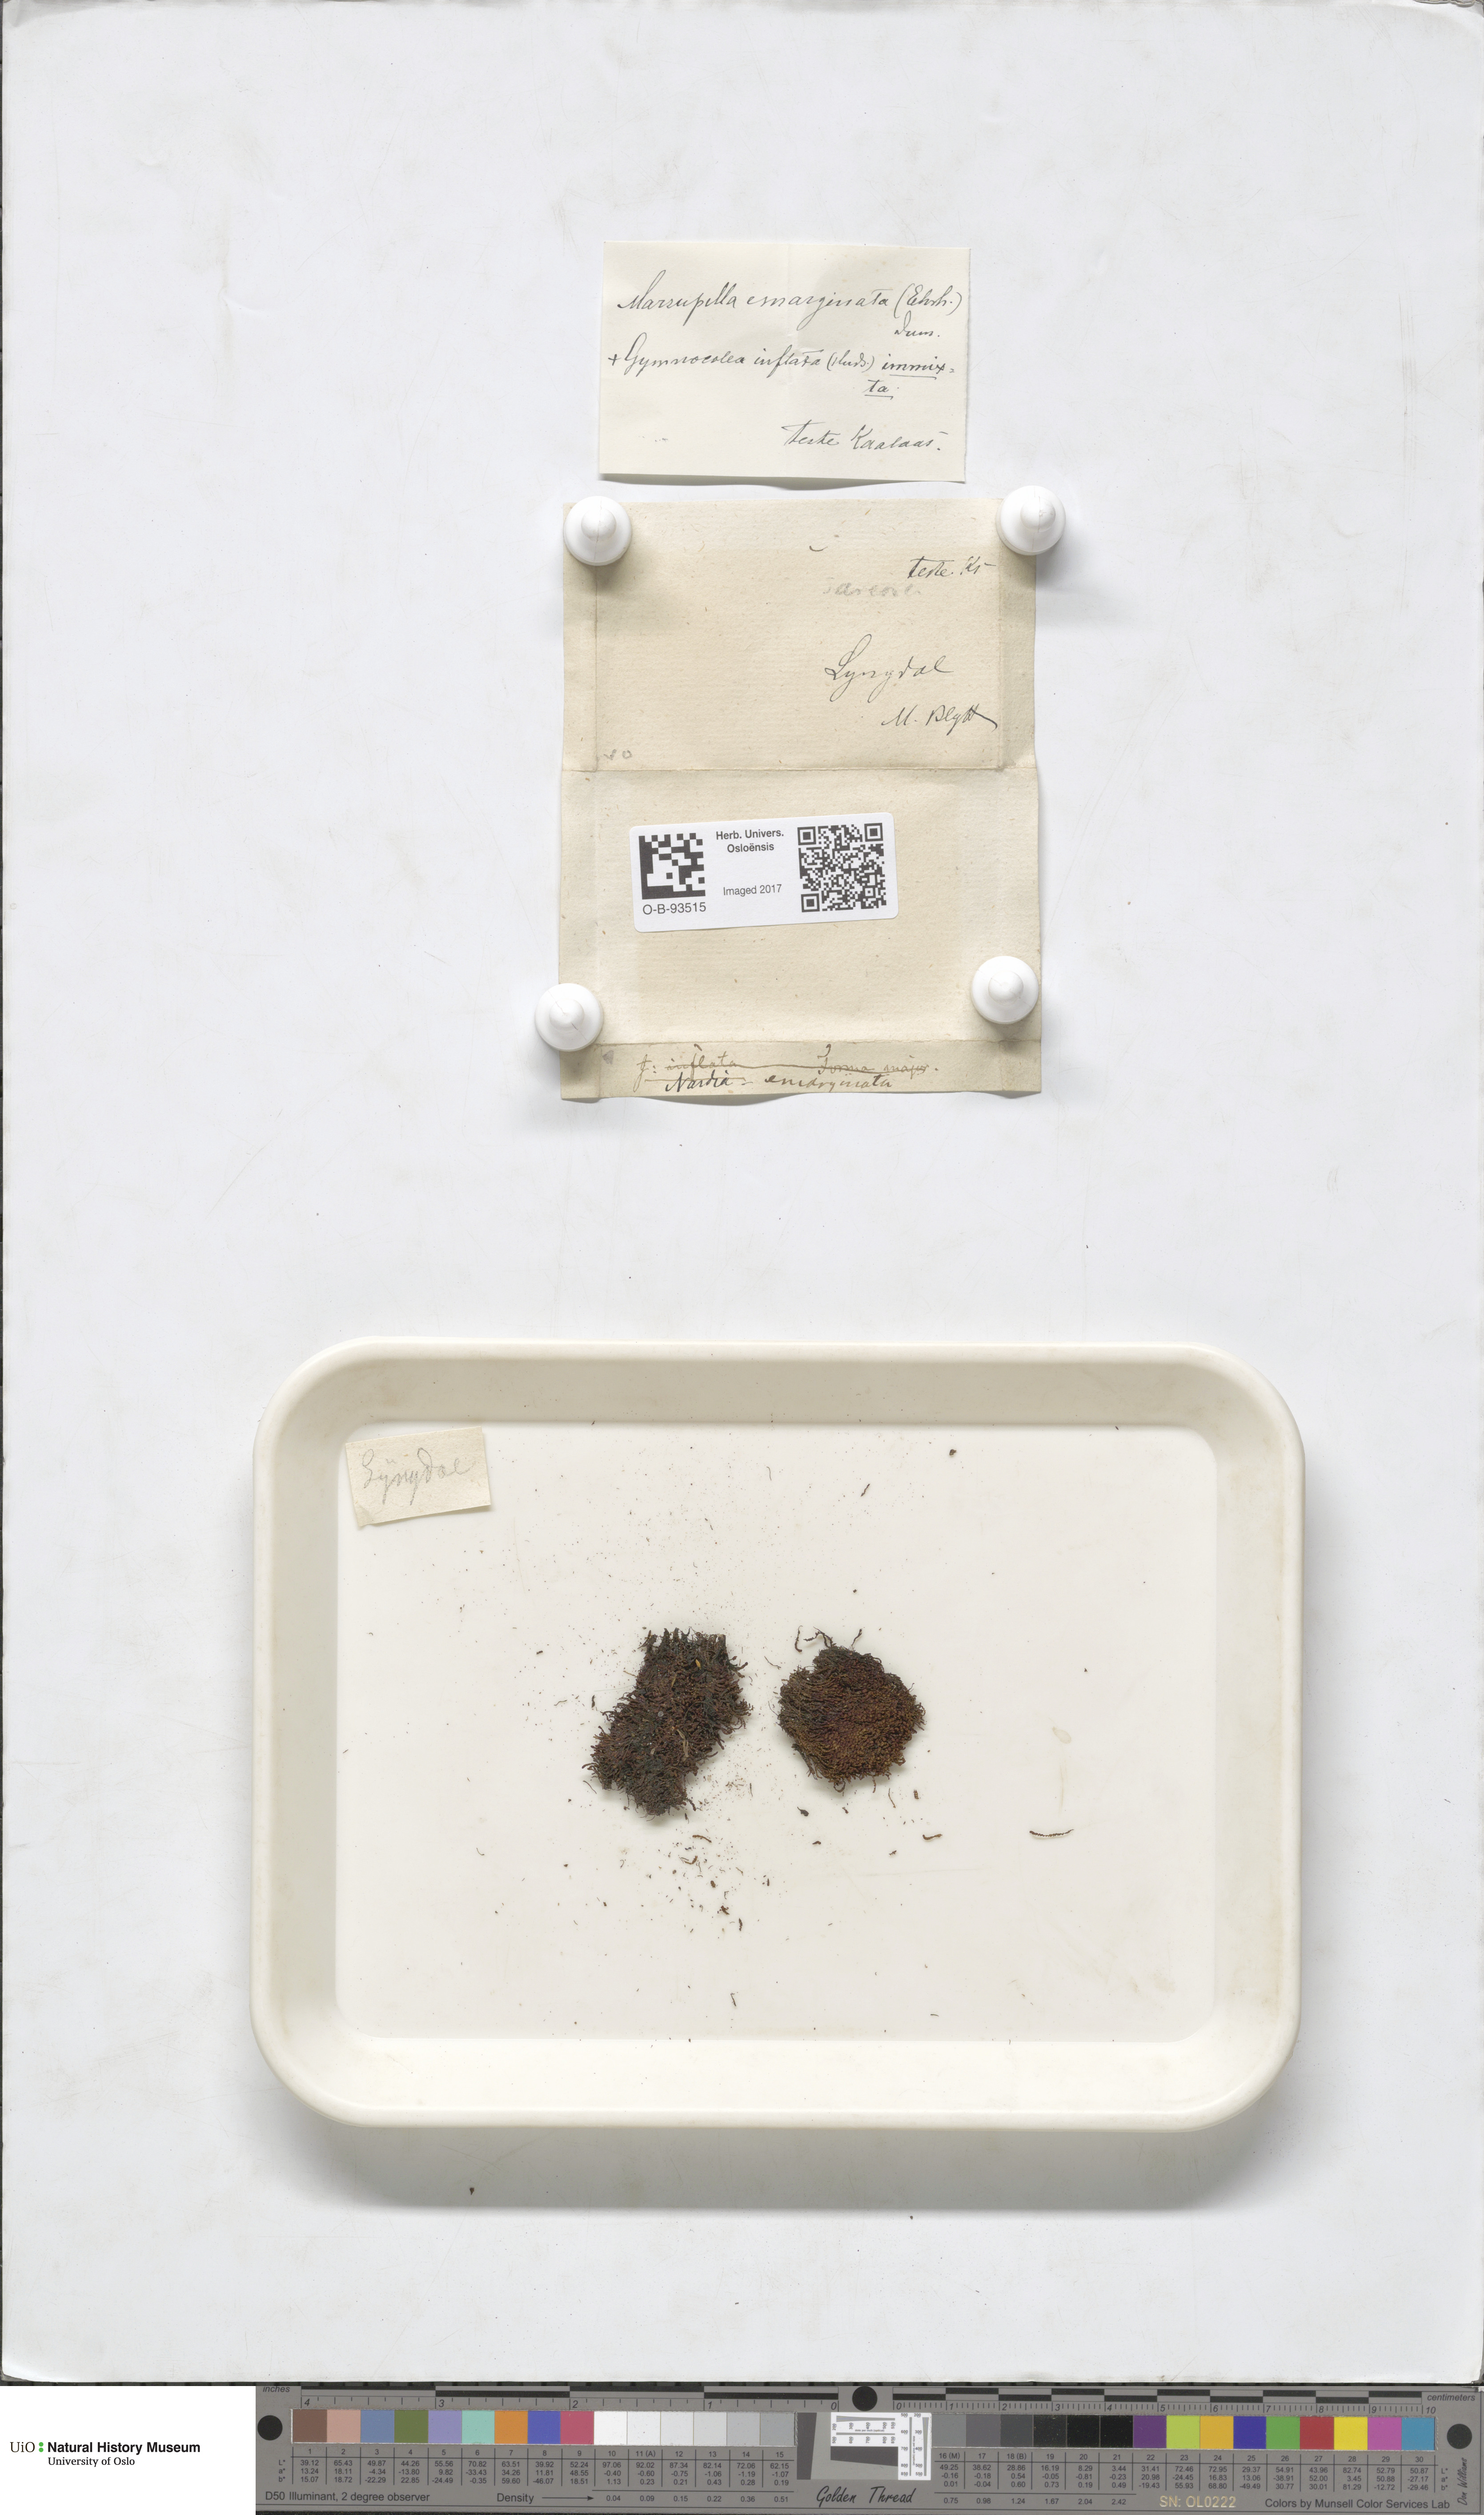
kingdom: Plantae
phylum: Marchantiophyta
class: Jungermanniopsida
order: Jungermanniales
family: Gymnomitriaceae
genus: Marsupella
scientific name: Marsupella emarginata
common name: Notched rustwort
